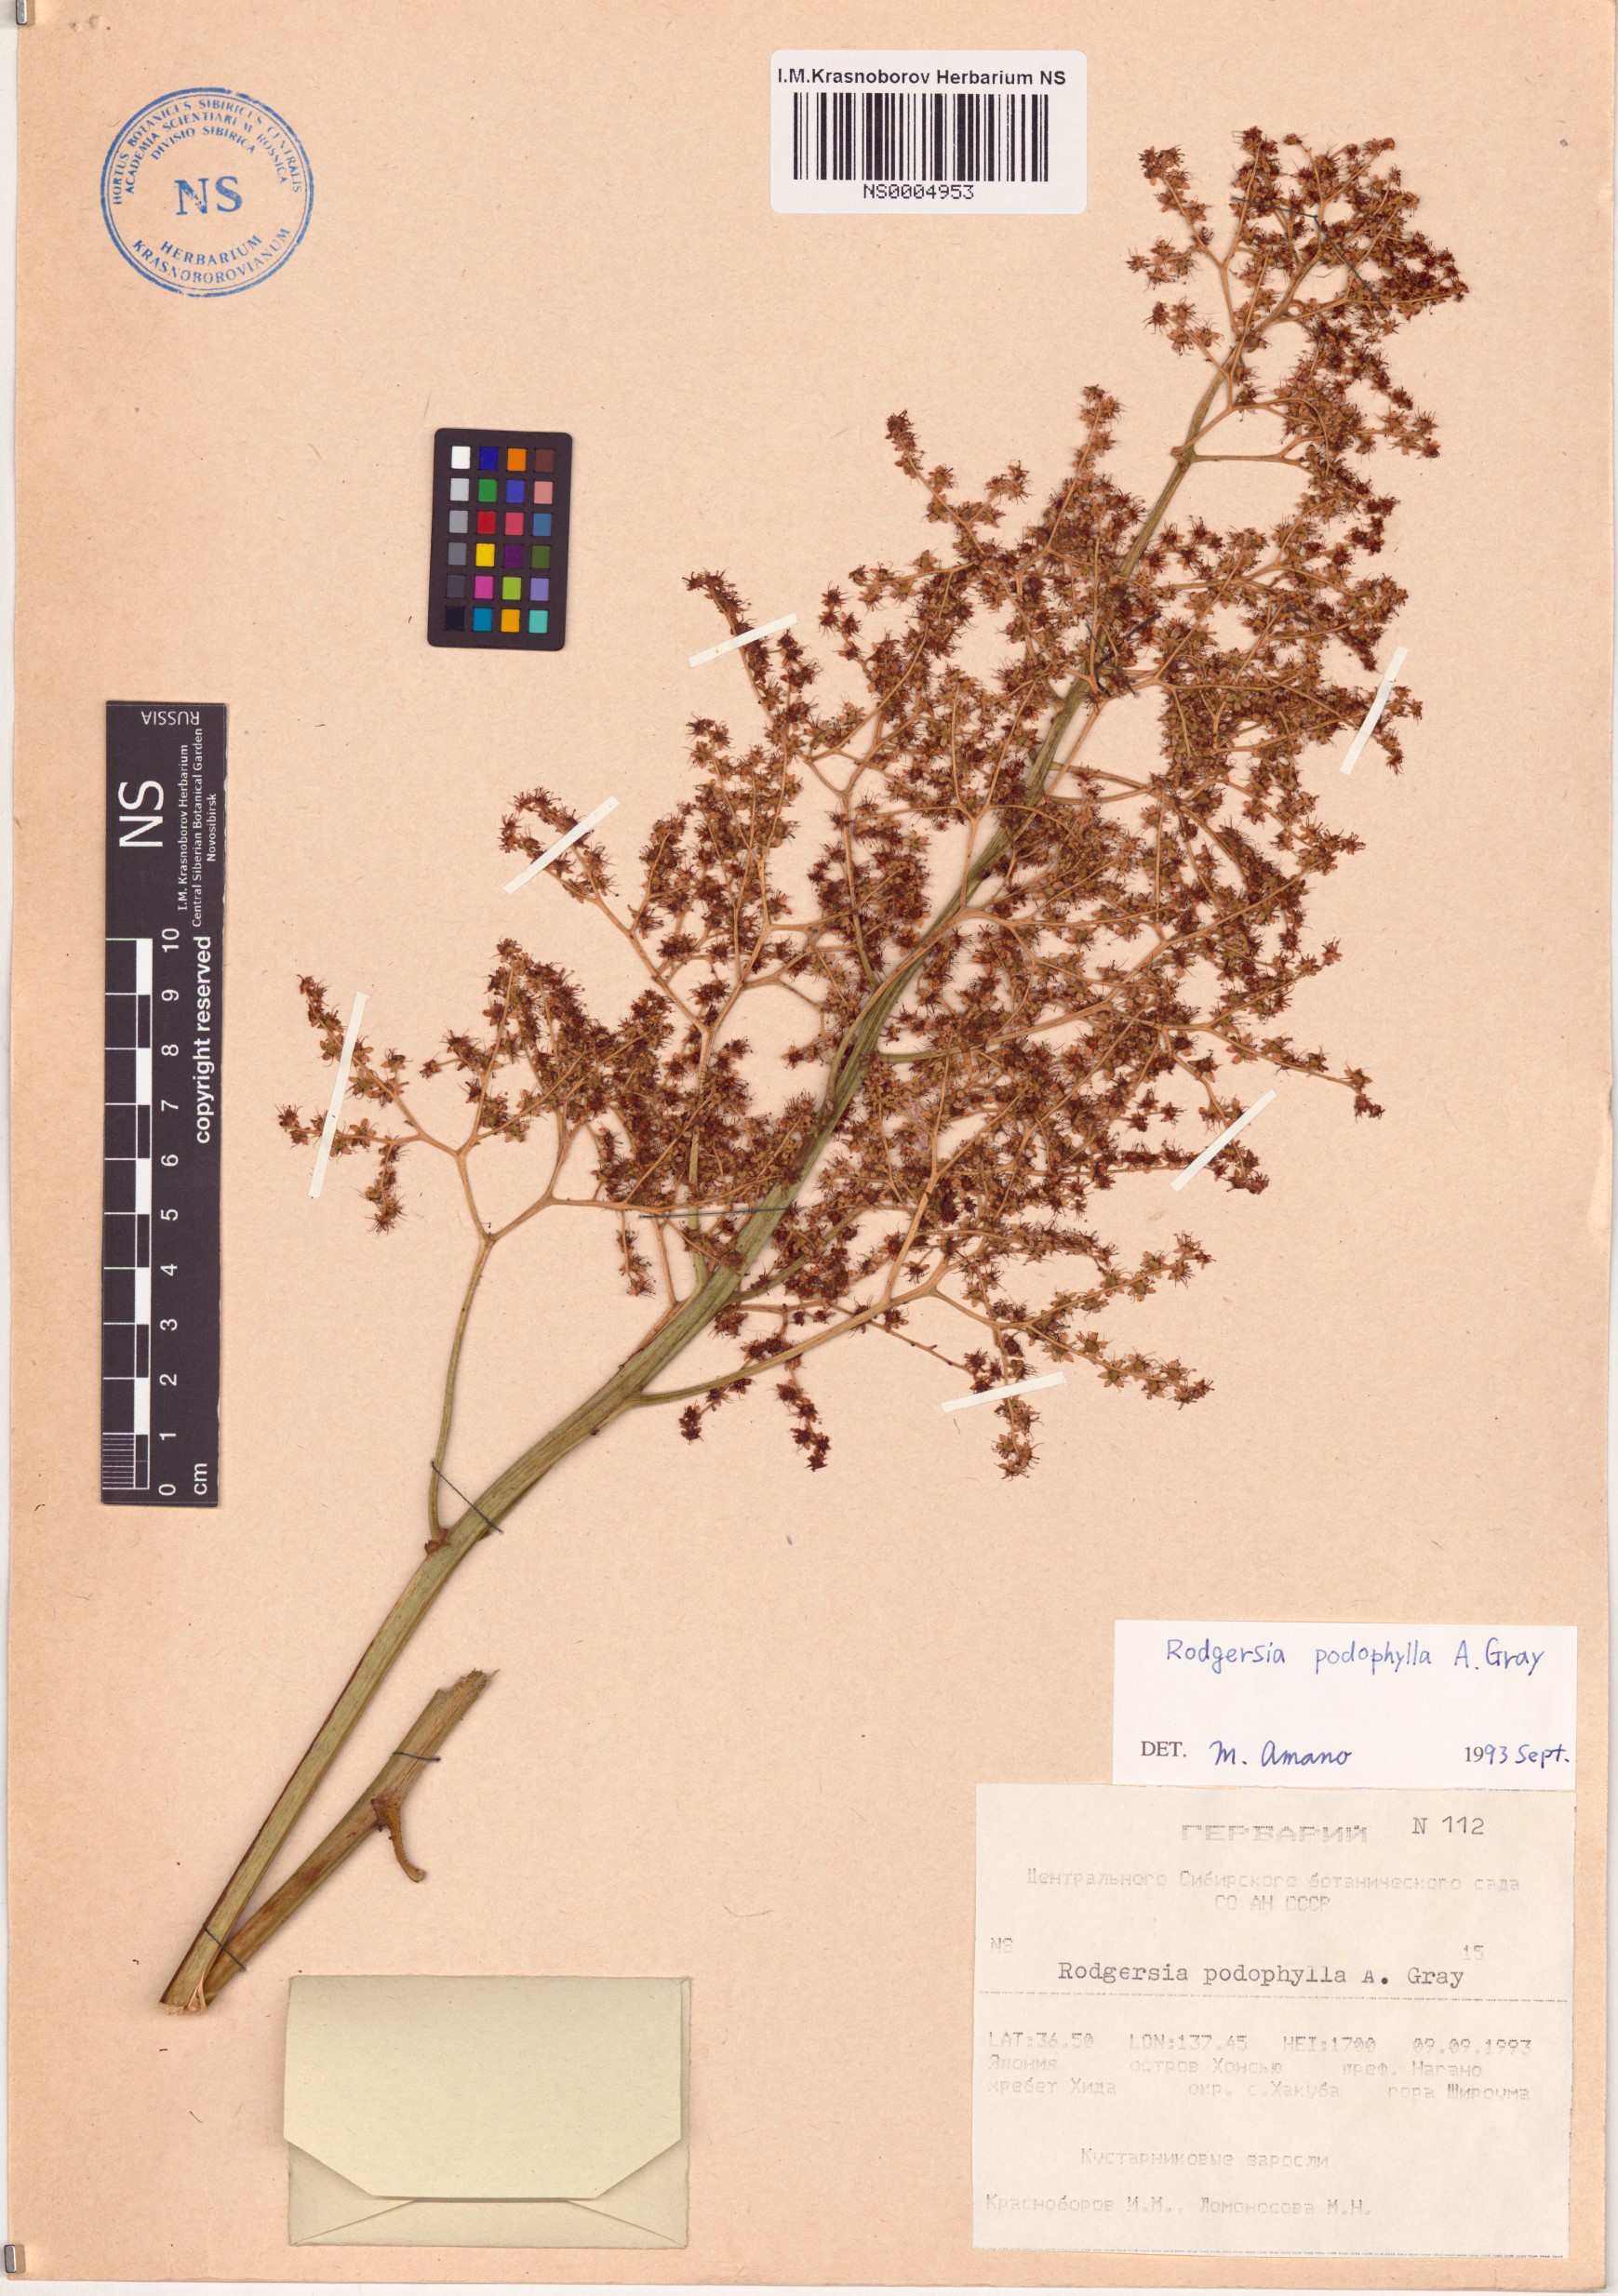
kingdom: Plantae
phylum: Tracheophyta
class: Magnoliopsida
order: Saxifragales
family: Saxifragaceae
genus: Rodgersia
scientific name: Rodgersia podophylla
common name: Rodgersia
